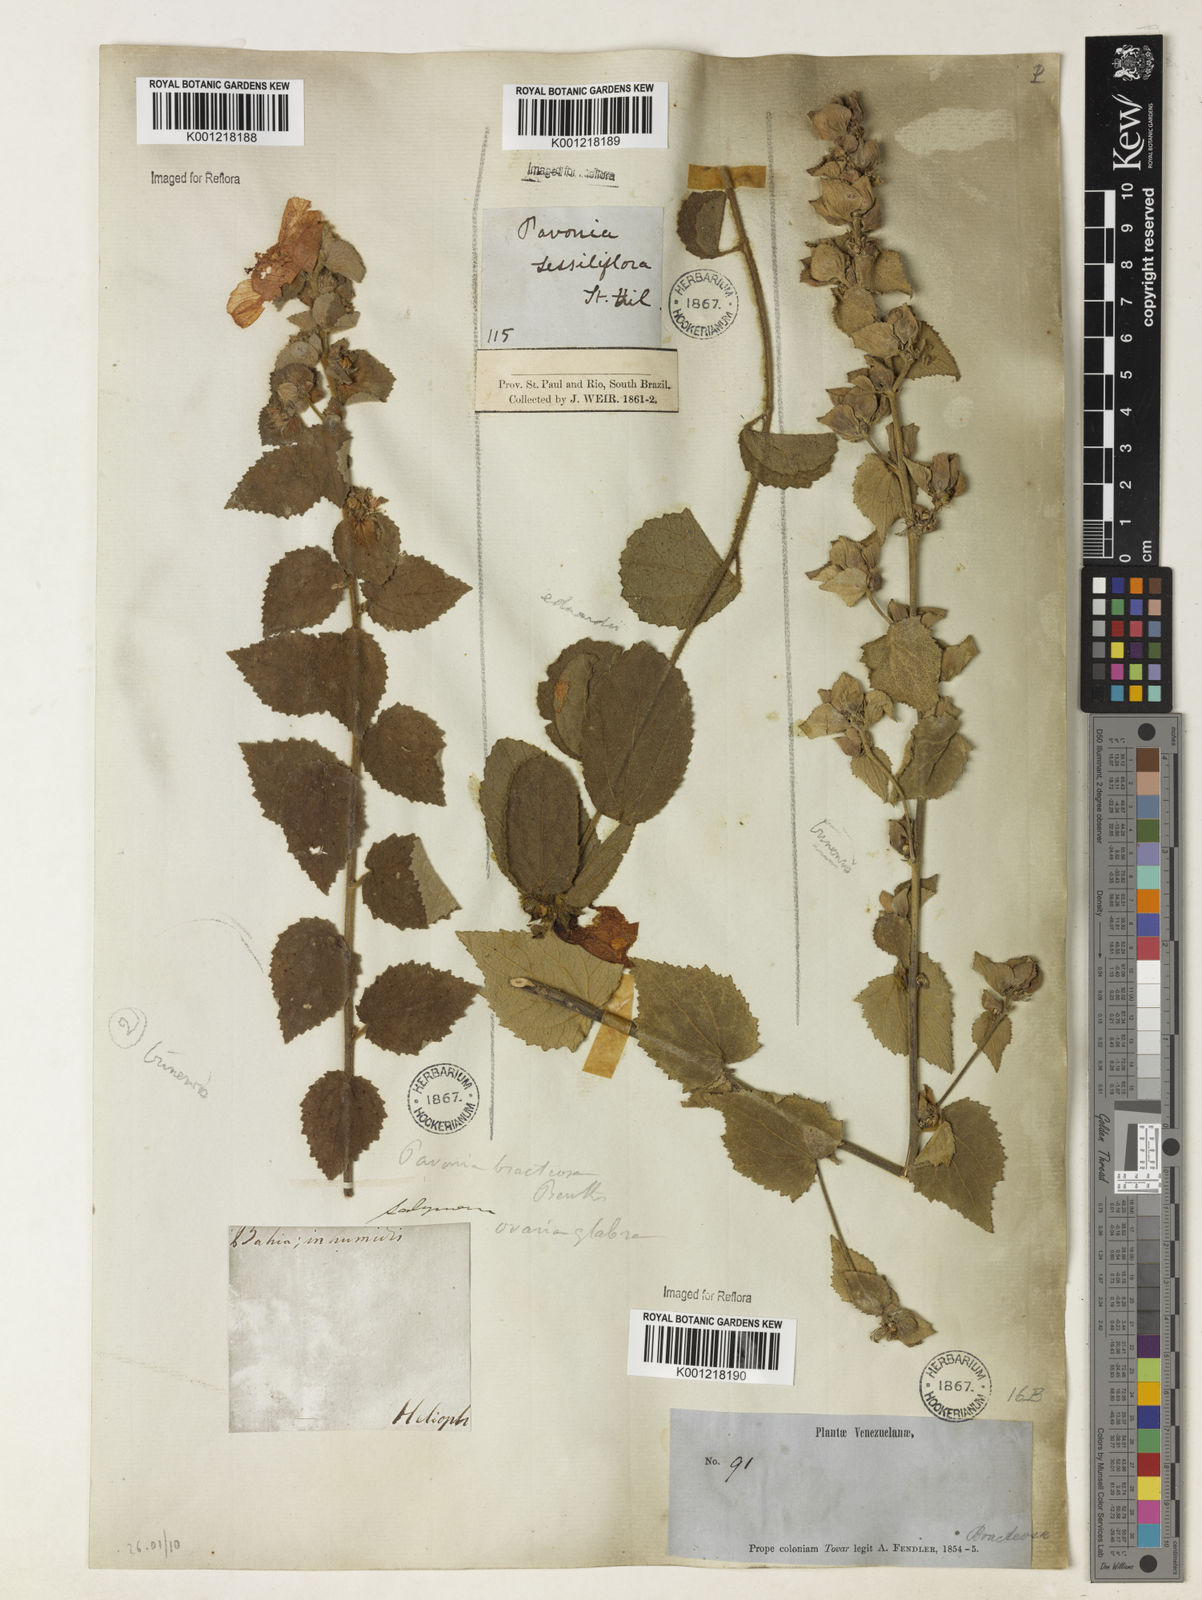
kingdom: Plantae
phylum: Tracheophyta
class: Magnoliopsida
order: Malvales
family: Malvaceae
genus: Peltaea
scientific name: Peltaea sessiliflora
